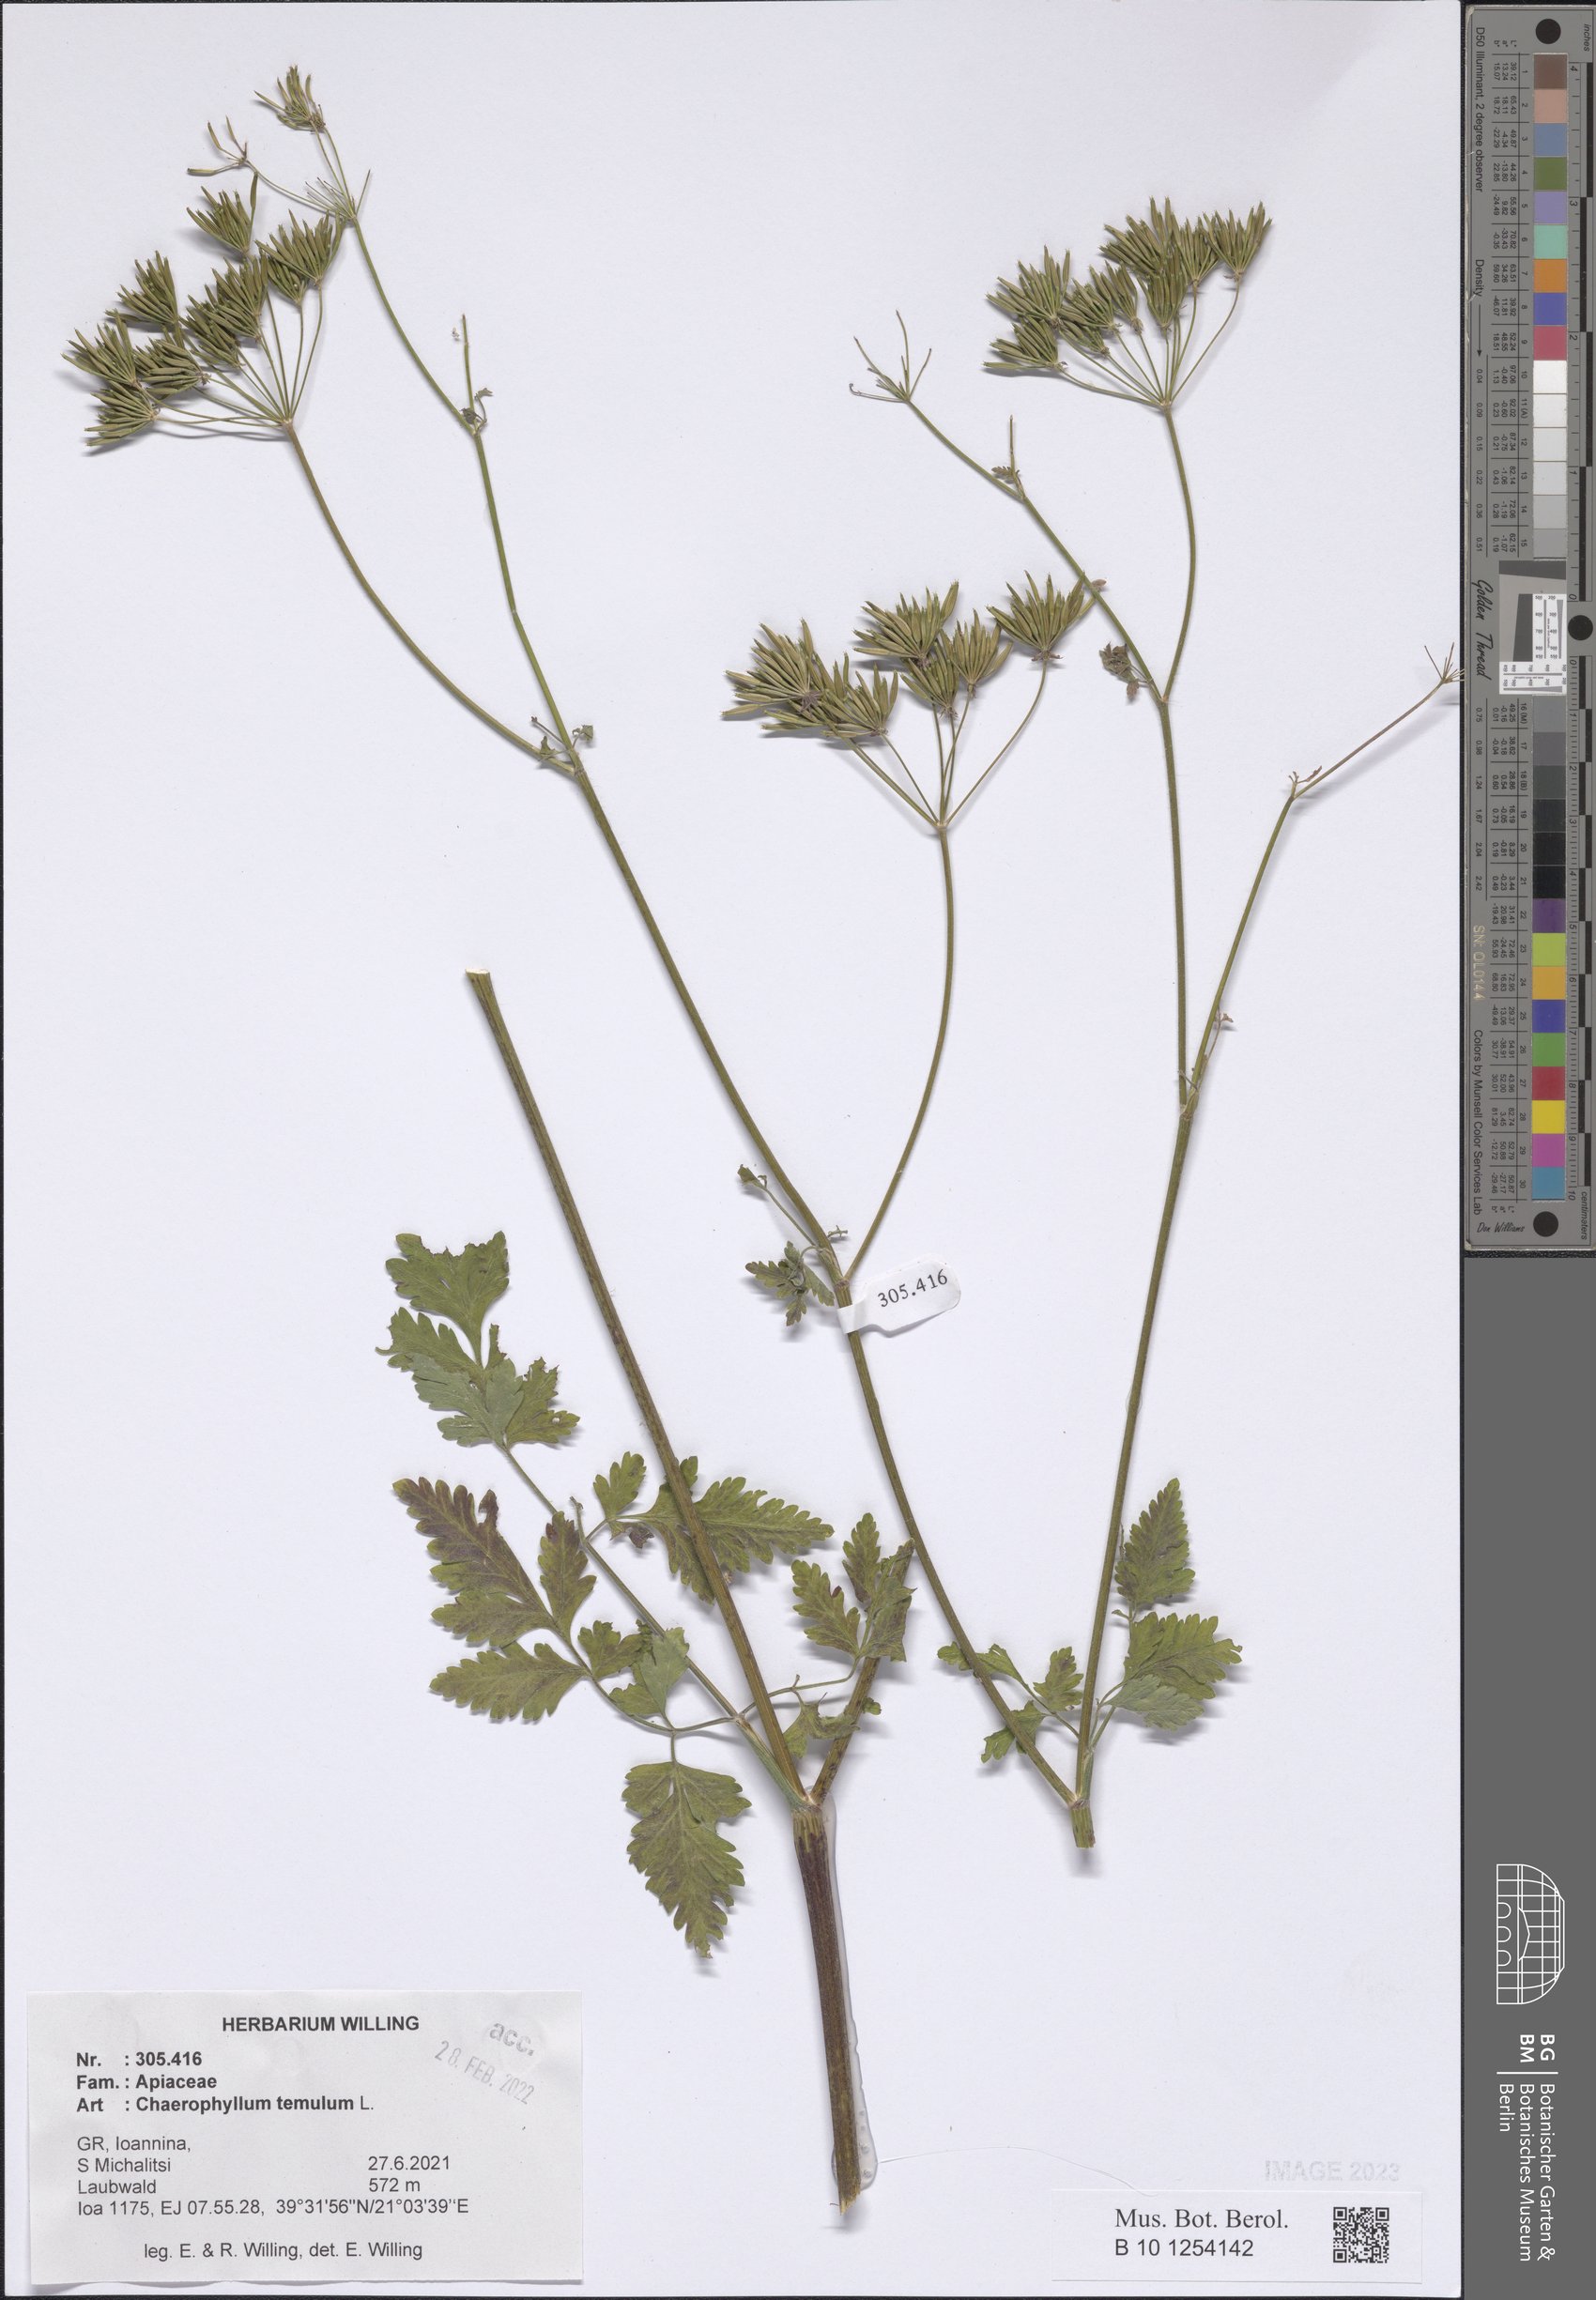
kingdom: Plantae
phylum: Tracheophyta
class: Magnoliopsida
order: Apiales
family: Apiaceae
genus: Chaerophyllum
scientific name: Chaerophyllum temulum
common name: Rough chervil
